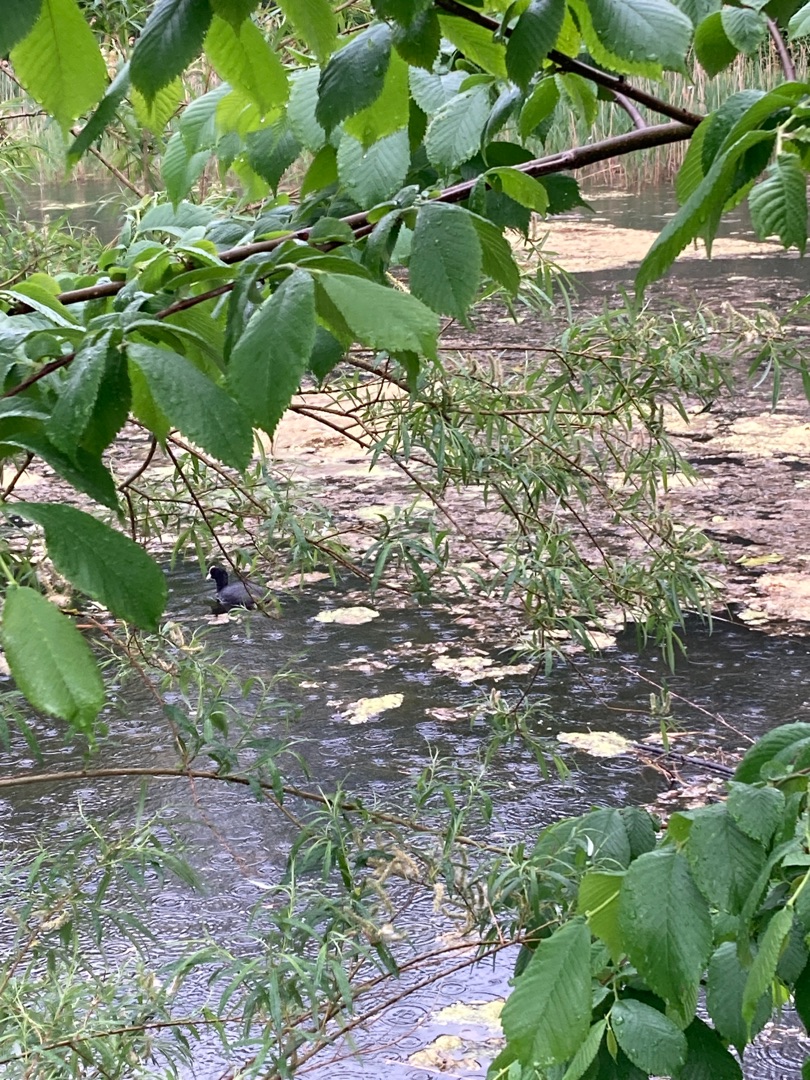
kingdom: Animalia
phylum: Chordata
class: Aves
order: Gruiformes
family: Rallidae
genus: Fulica
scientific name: Fulica atra
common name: Blishøne
